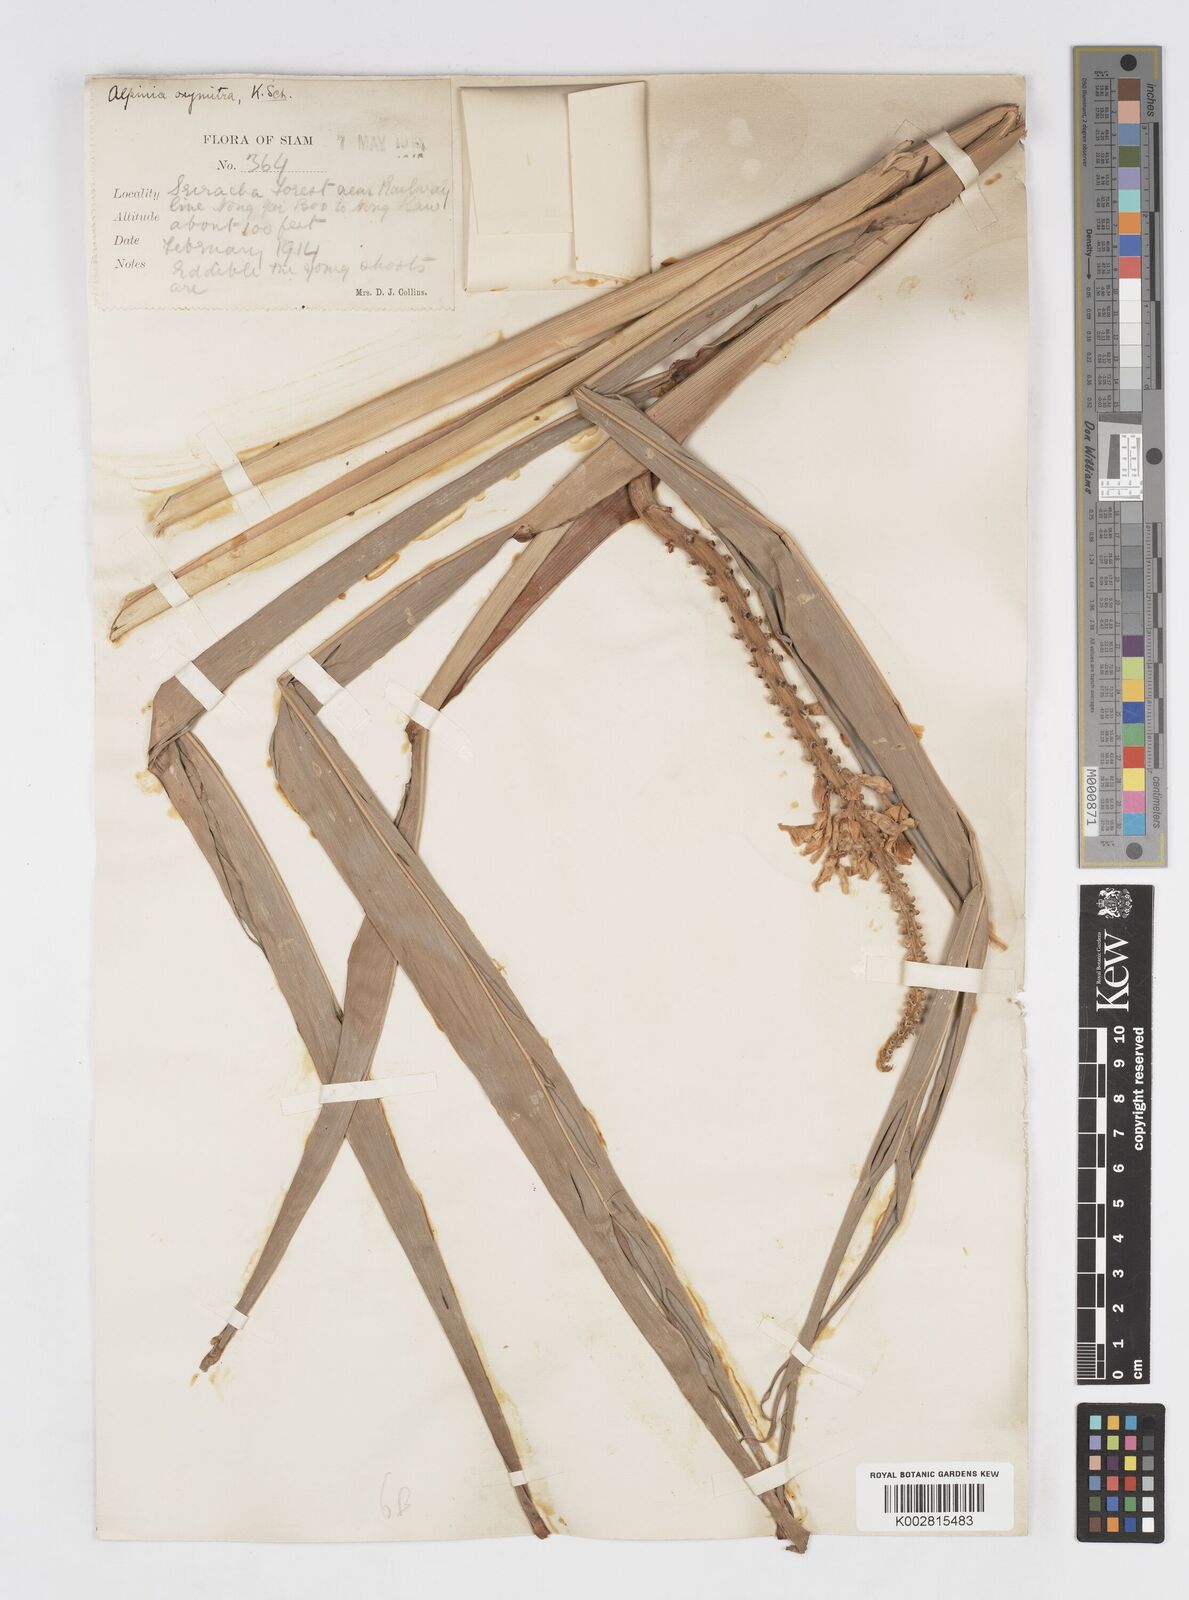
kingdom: Plantae
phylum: Tracheophyta
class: Liliopsida
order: Zingiberales
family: Zingiberaceae
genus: Alpinia
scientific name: Alpinia oxymitra
